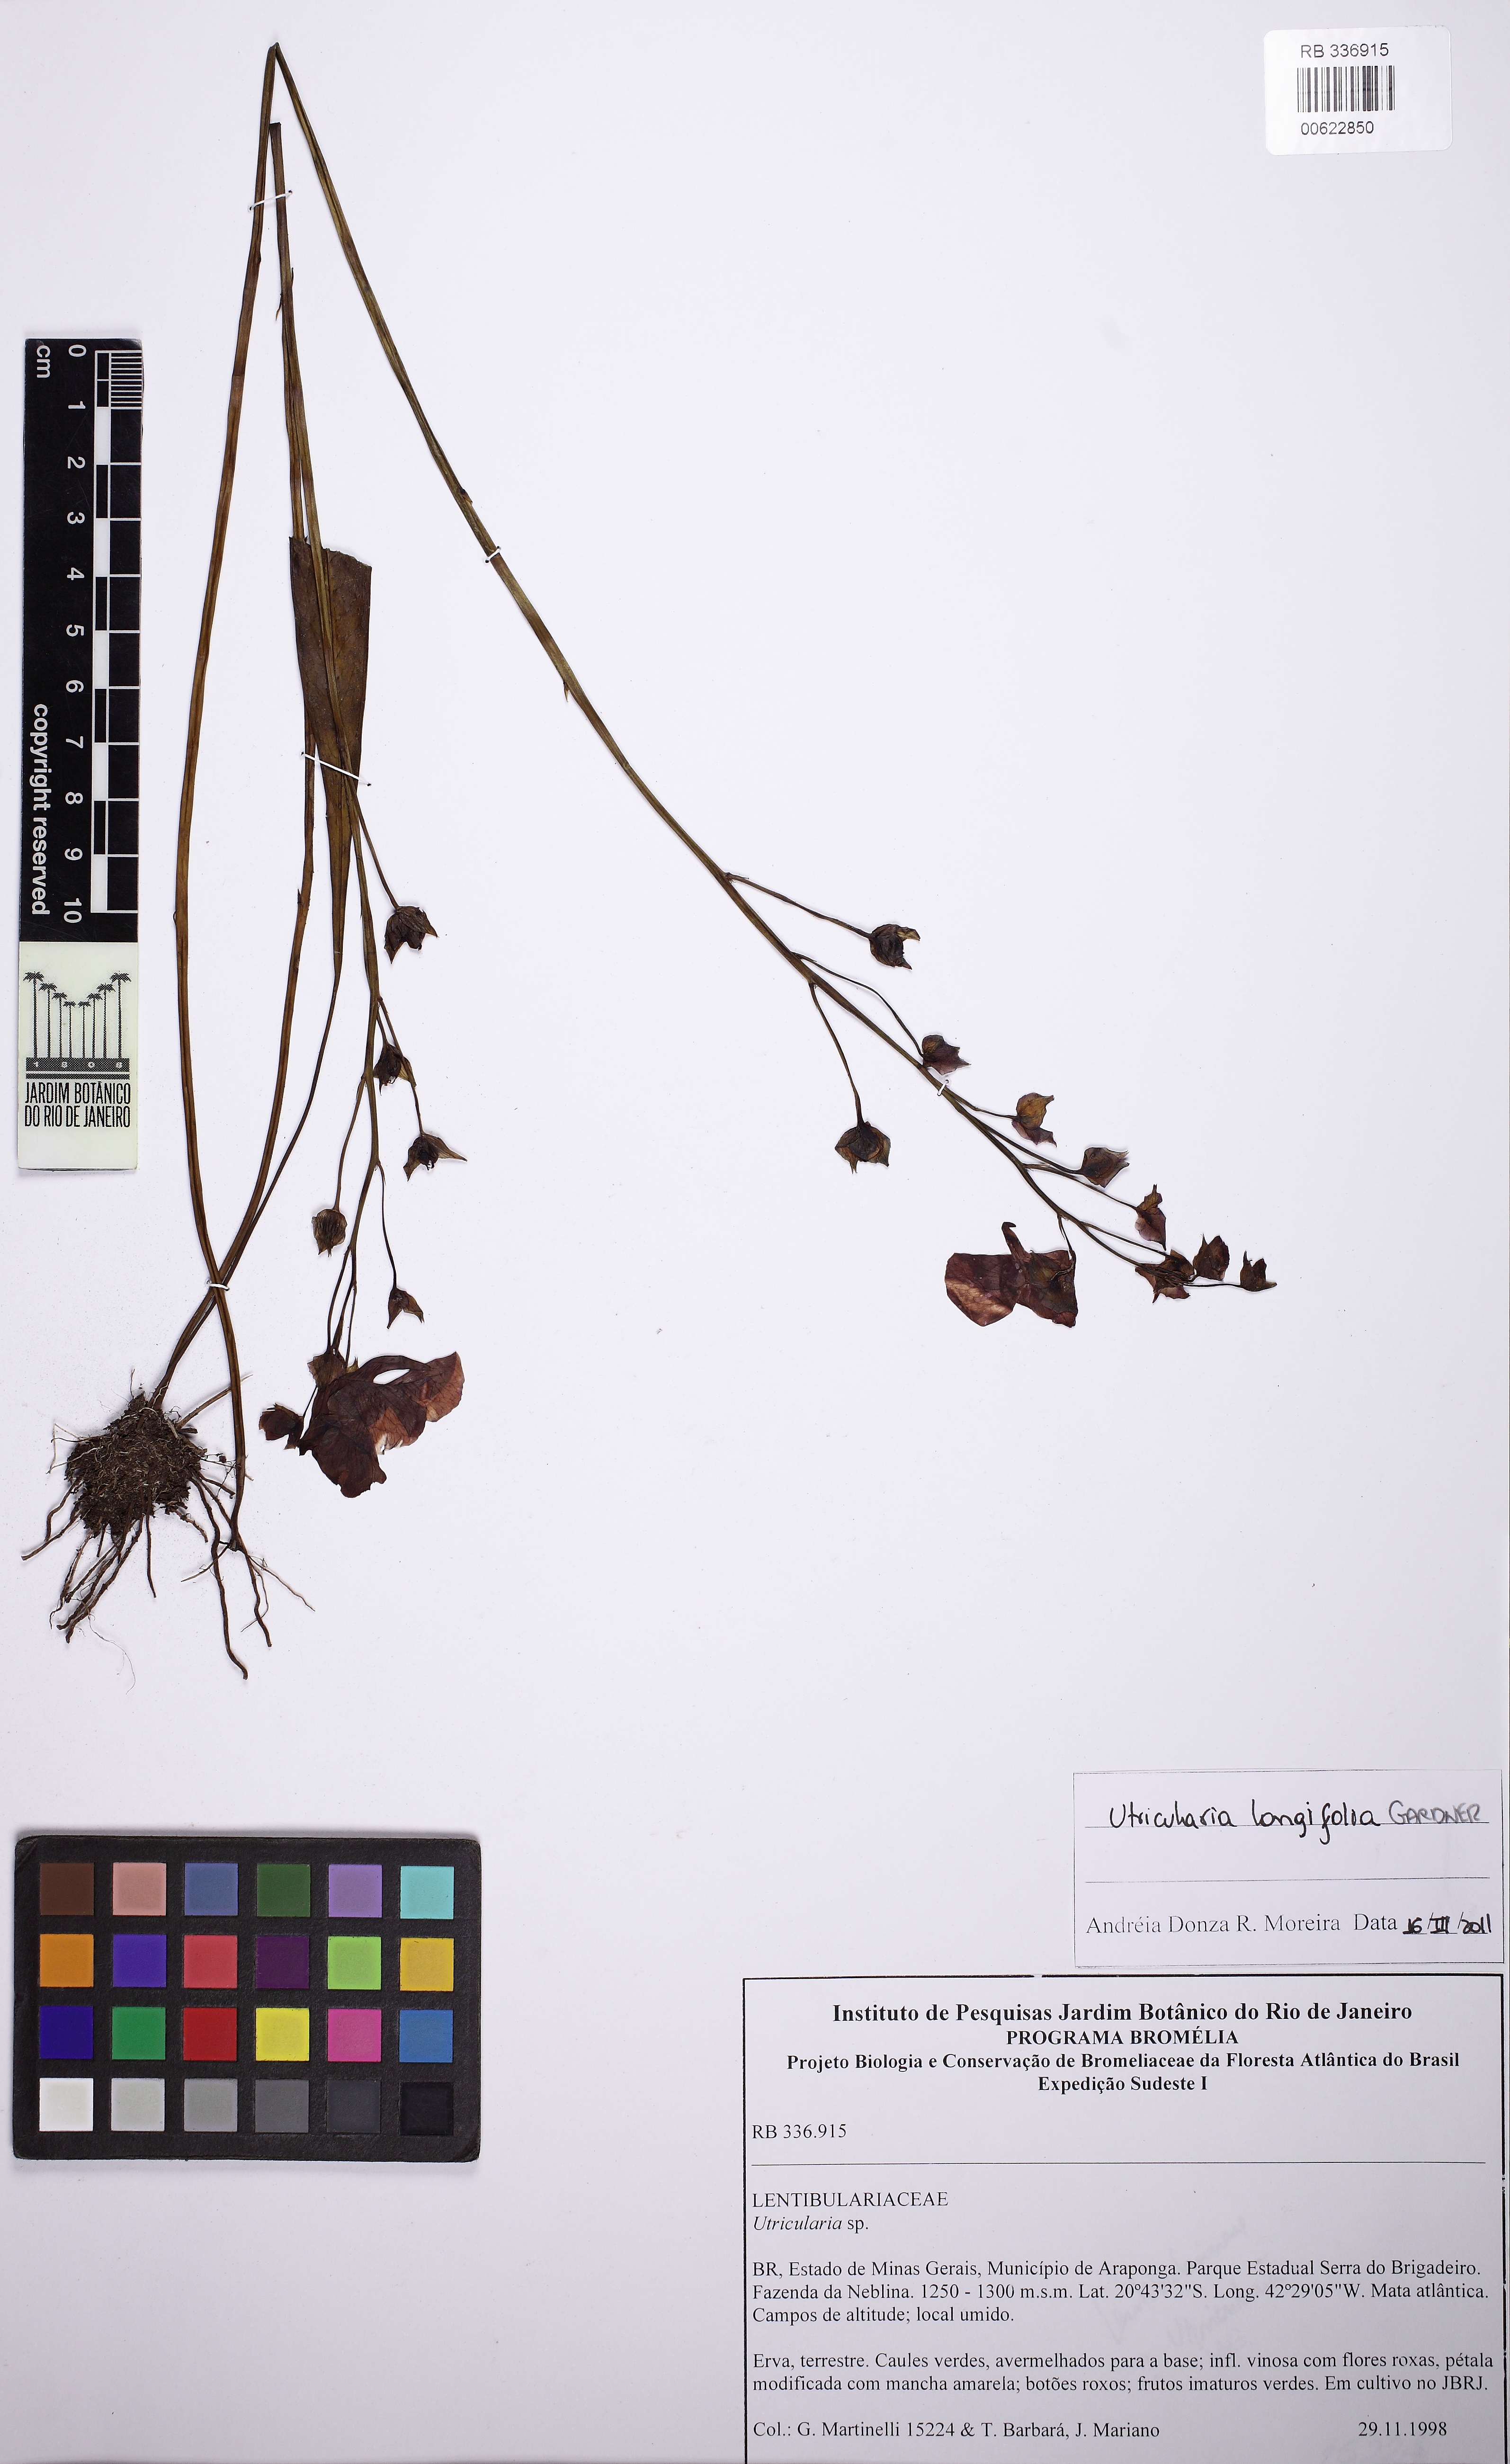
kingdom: Plantae
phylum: Tracheophyta
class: Magnoliopsida
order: Lamiales
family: Lentibulariaceae
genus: Utricularia
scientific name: Utricularia longifolia
